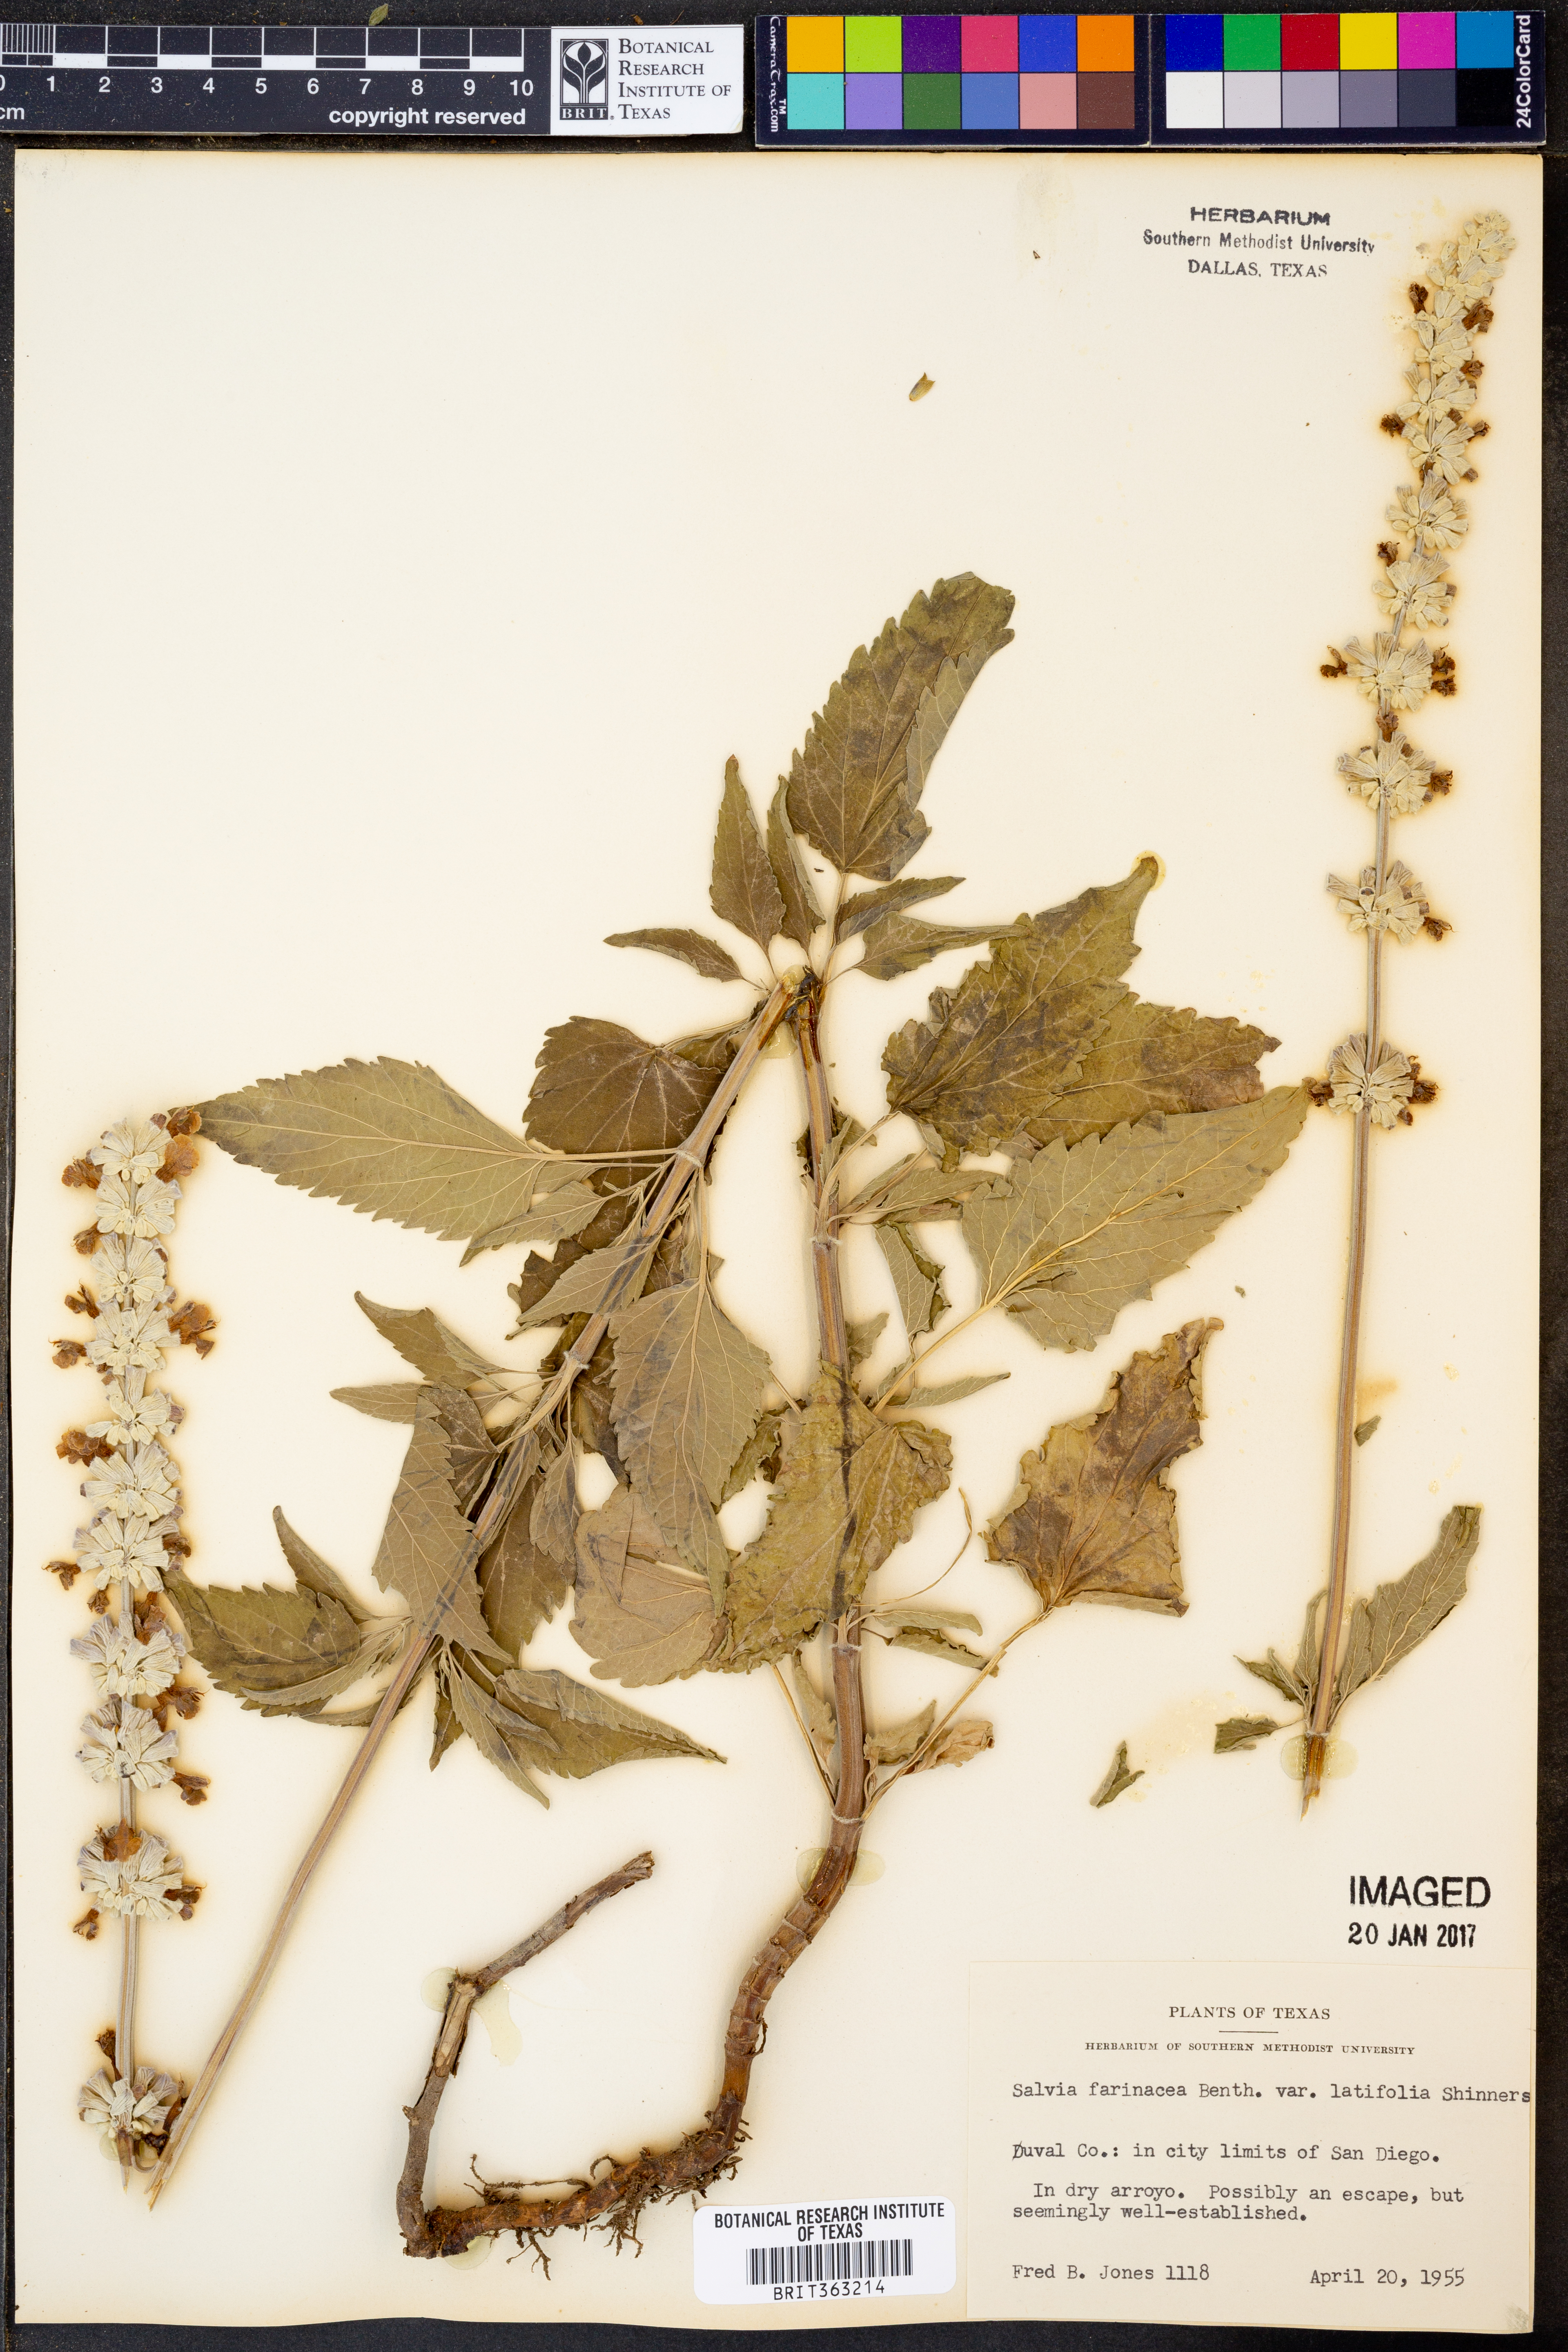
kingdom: Plantae
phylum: Tracheophyta
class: Magnoliopsida
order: Lamiales
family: Lamiaceae
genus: Salvia
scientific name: Salvia farinacea
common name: Mealy sage
